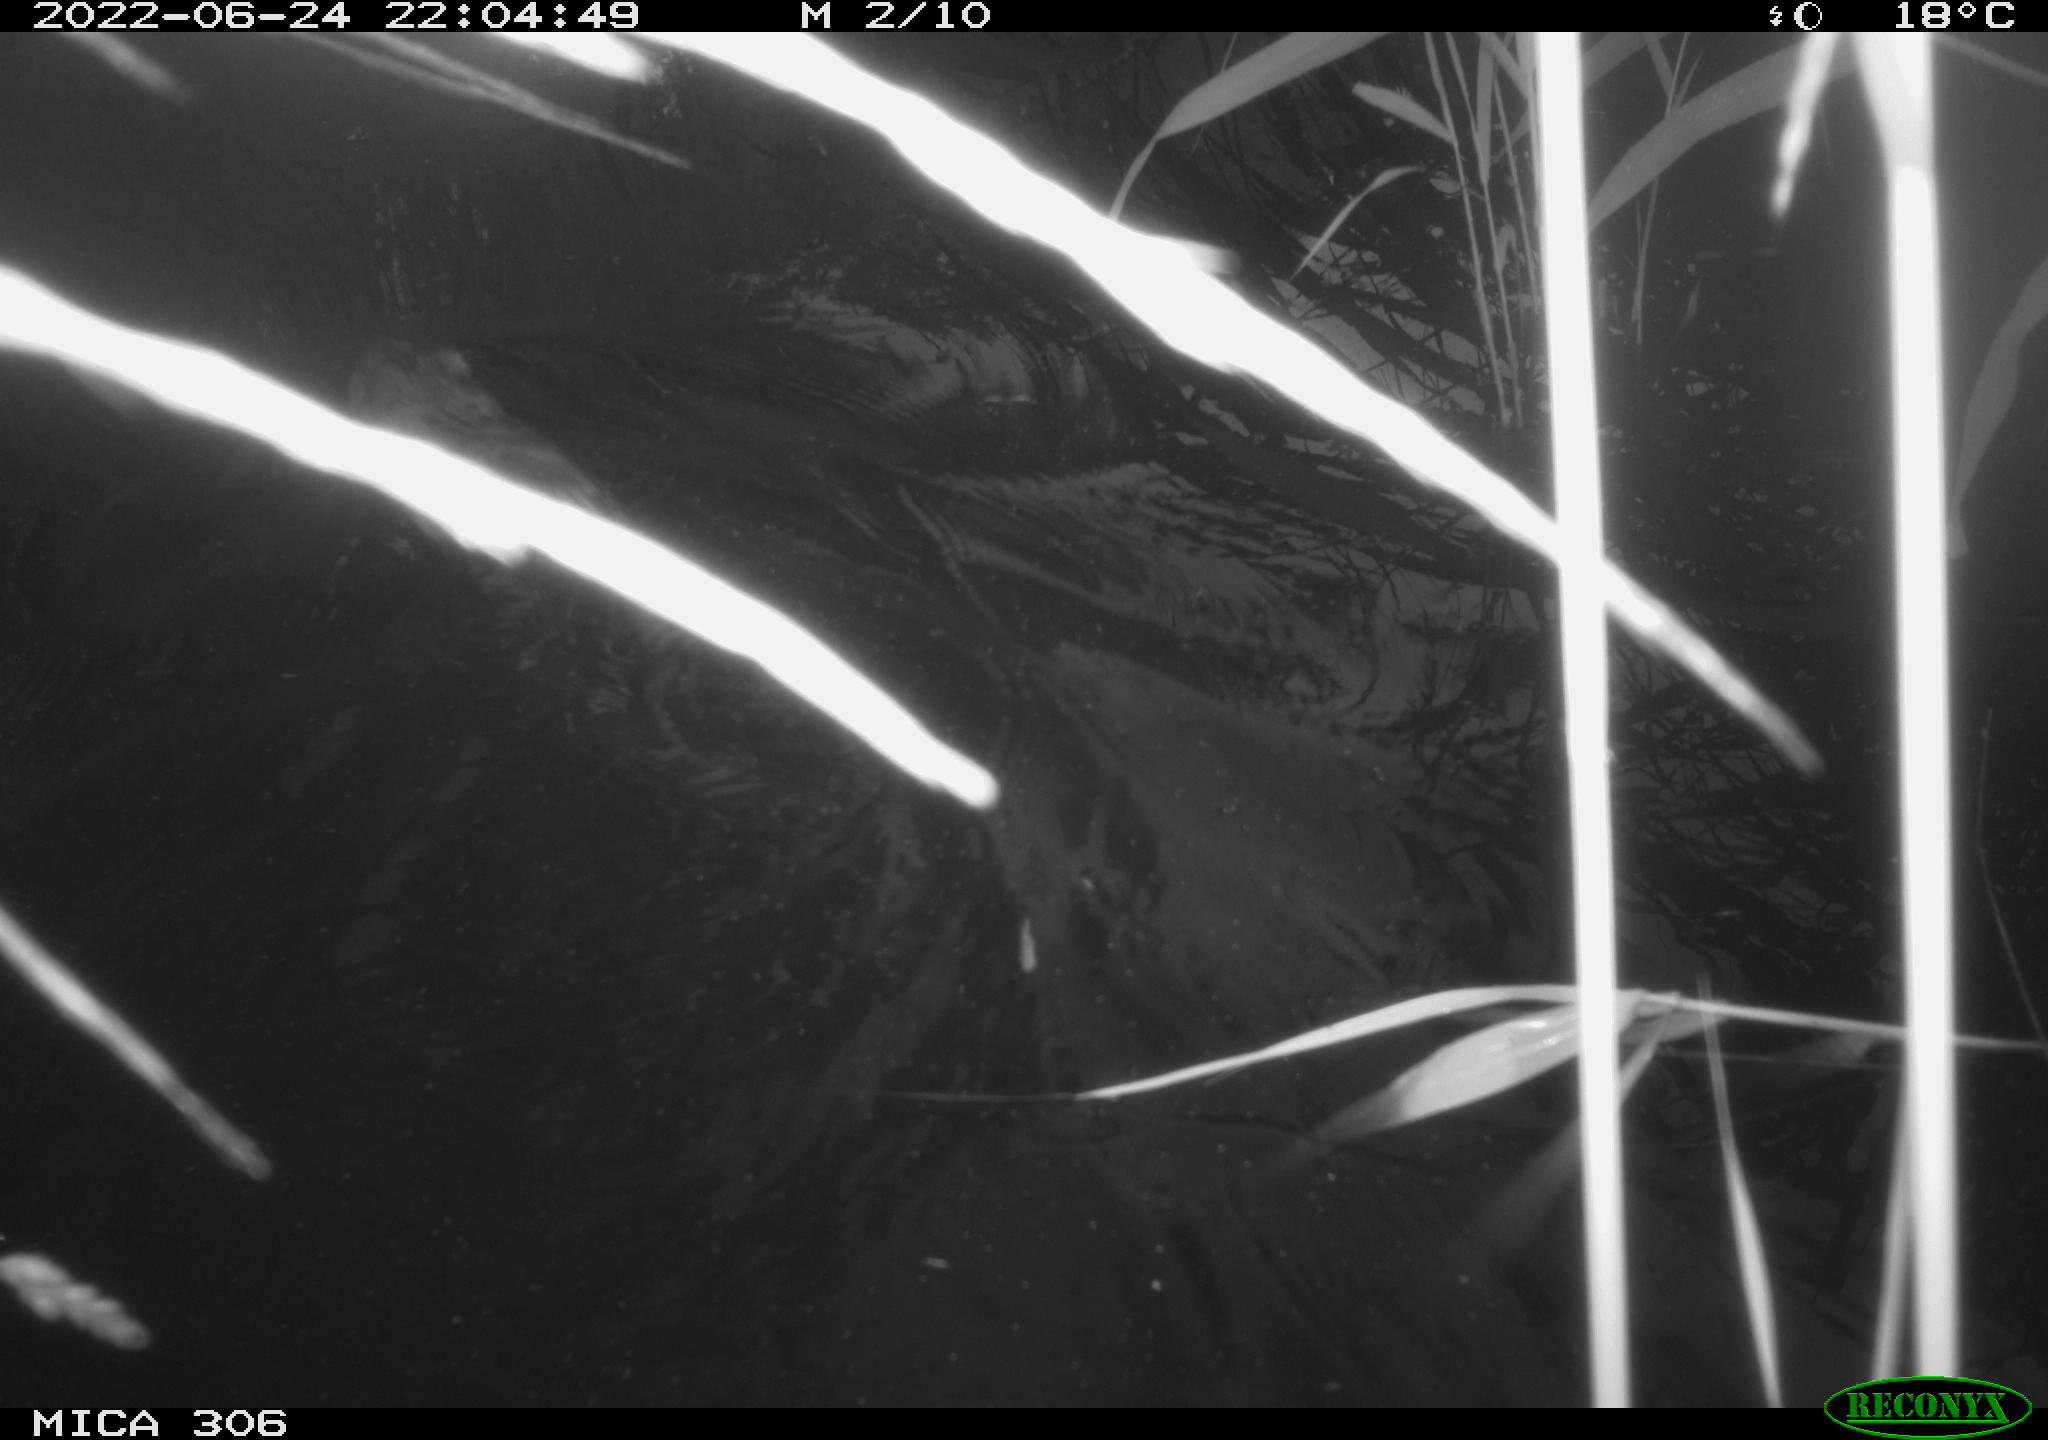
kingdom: Animalia
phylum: Chordata
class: Mammalia
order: Rodentia
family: Cricetidae
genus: Ondatra
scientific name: Ondatra zibethicus
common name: Muskrat
